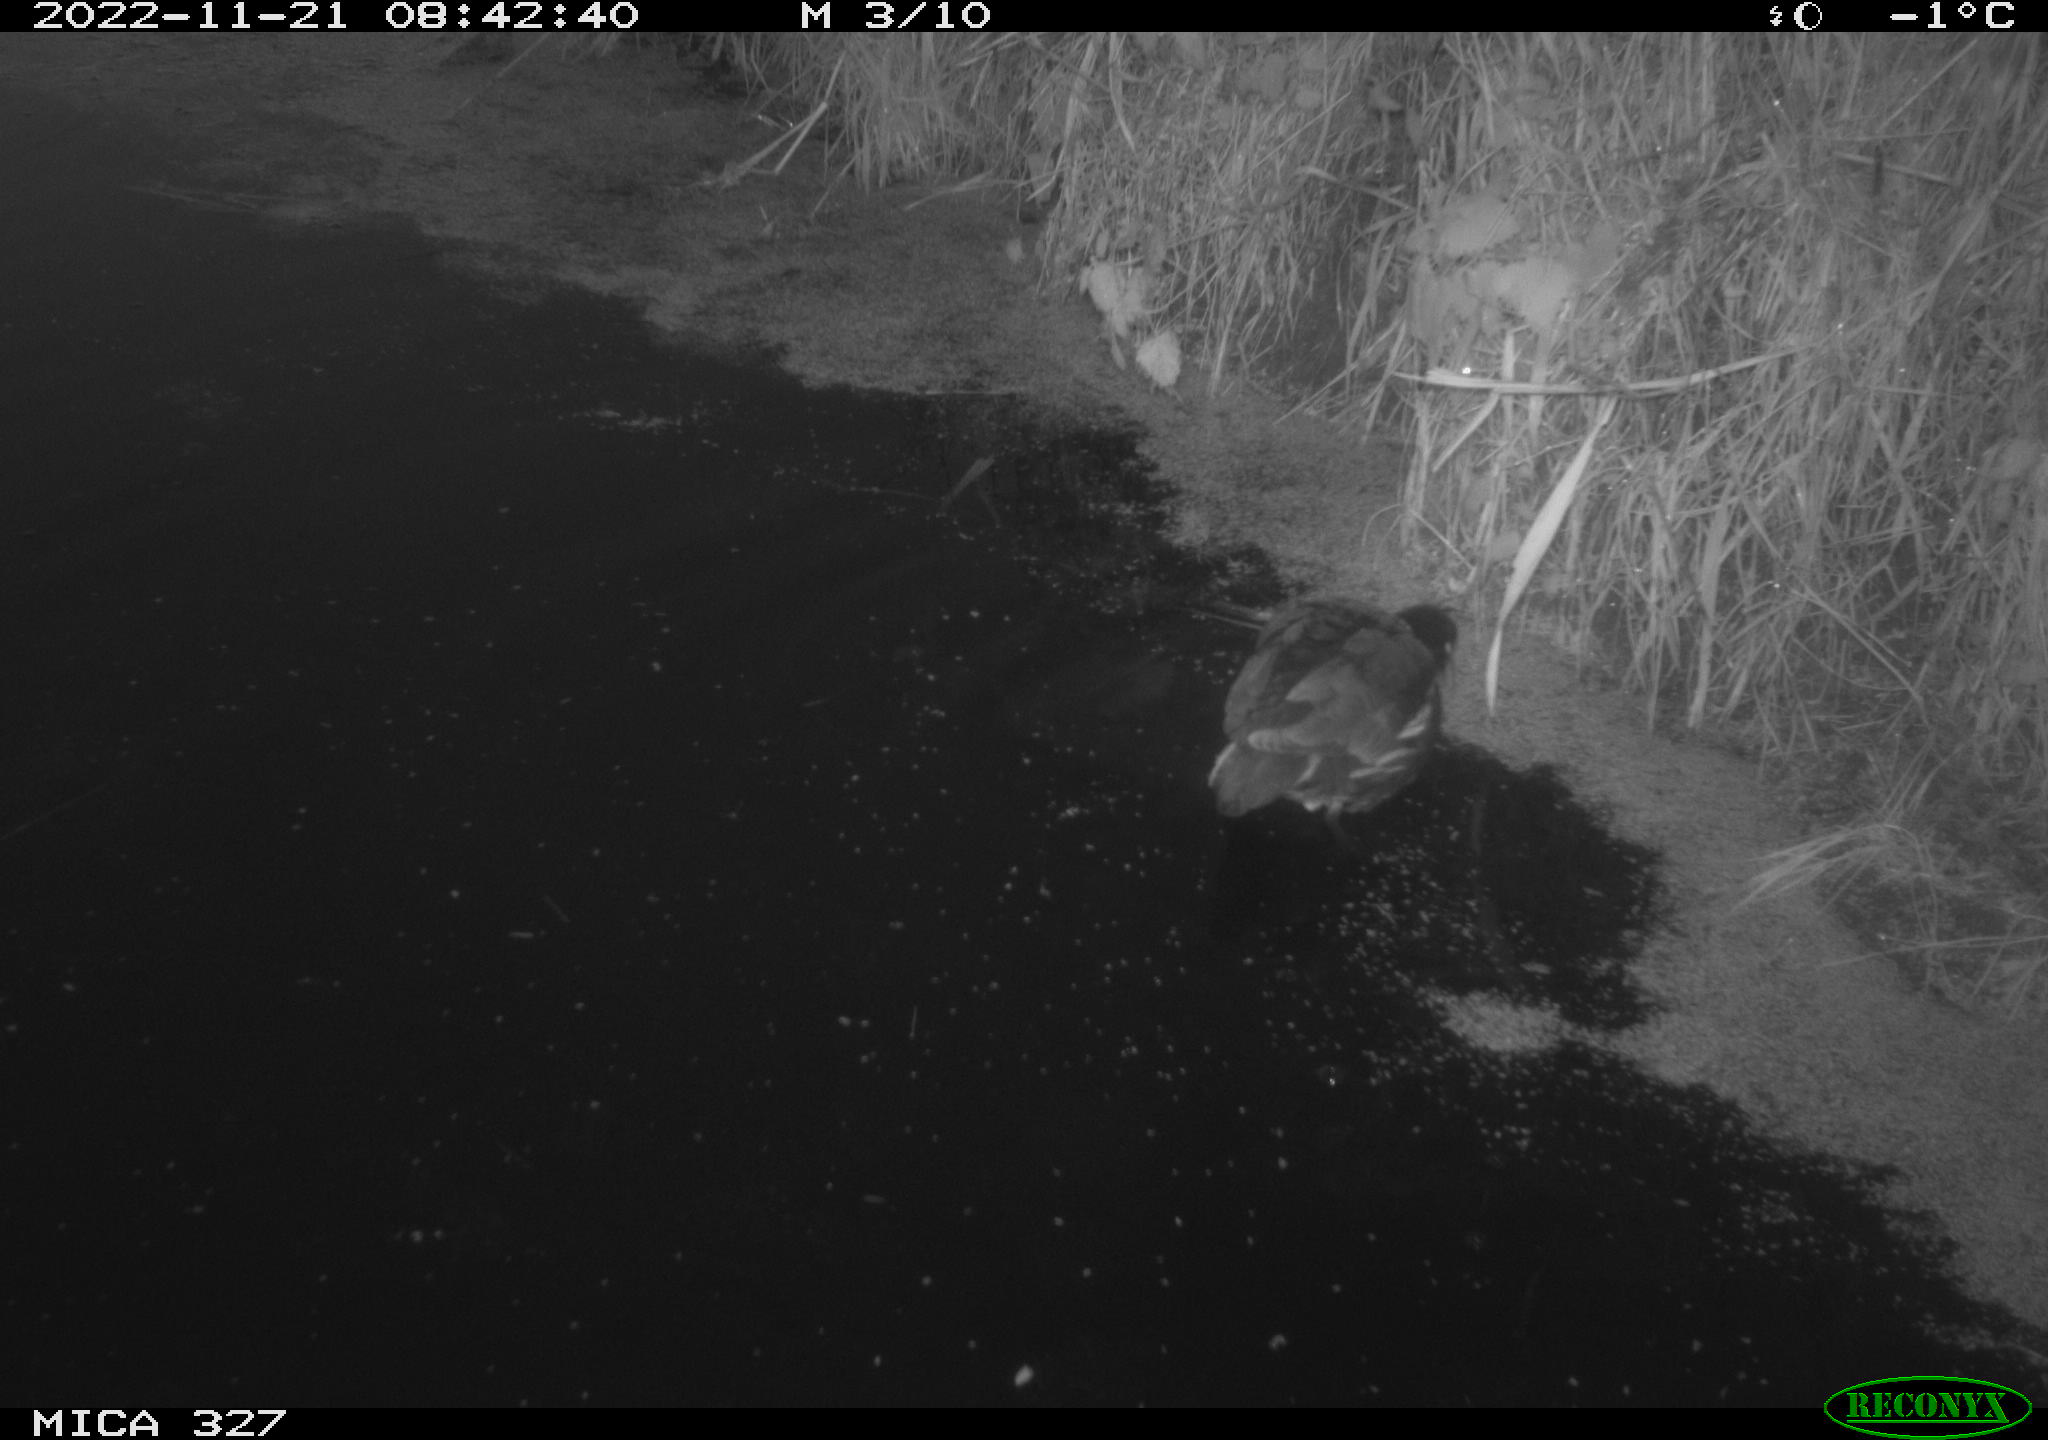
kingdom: Animalia
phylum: Chordata
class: Aves
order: Gruiformes
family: Rallidae
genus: Gallinula
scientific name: Gallinula chloropus
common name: Common moorhen
